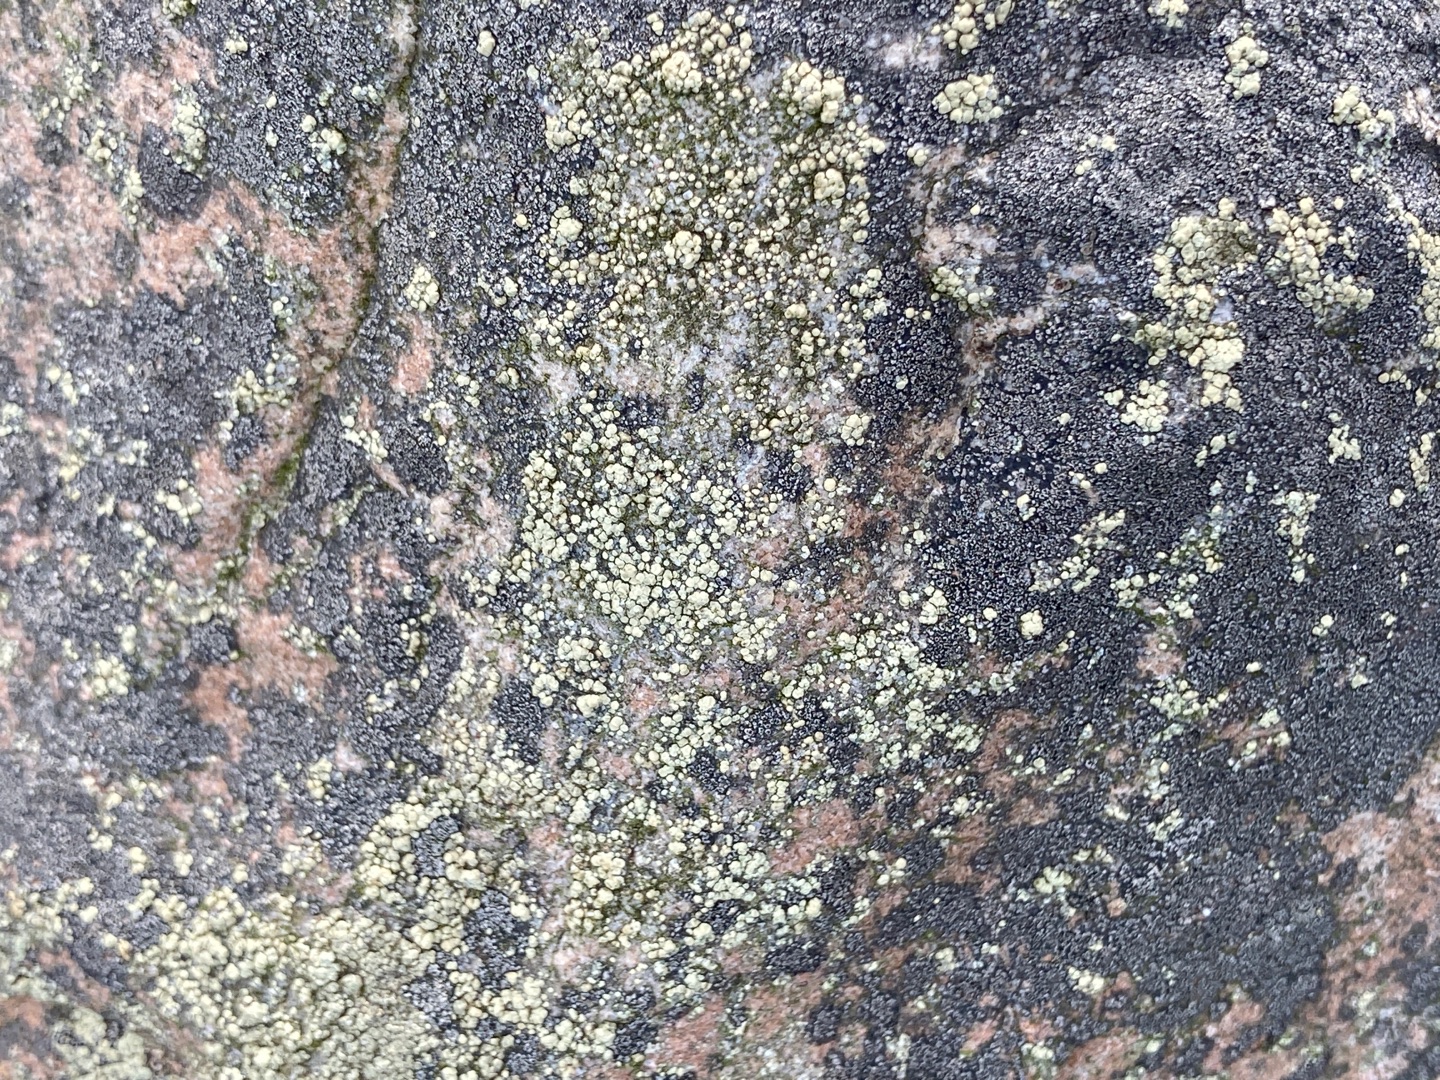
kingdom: Fungi
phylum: Ascomycota
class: Lecanoromycetes
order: Lecanorales
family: Lecanoraceae
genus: Lecanora
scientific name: Lecanora polytropa
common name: Bleggrøn kantskivelav
